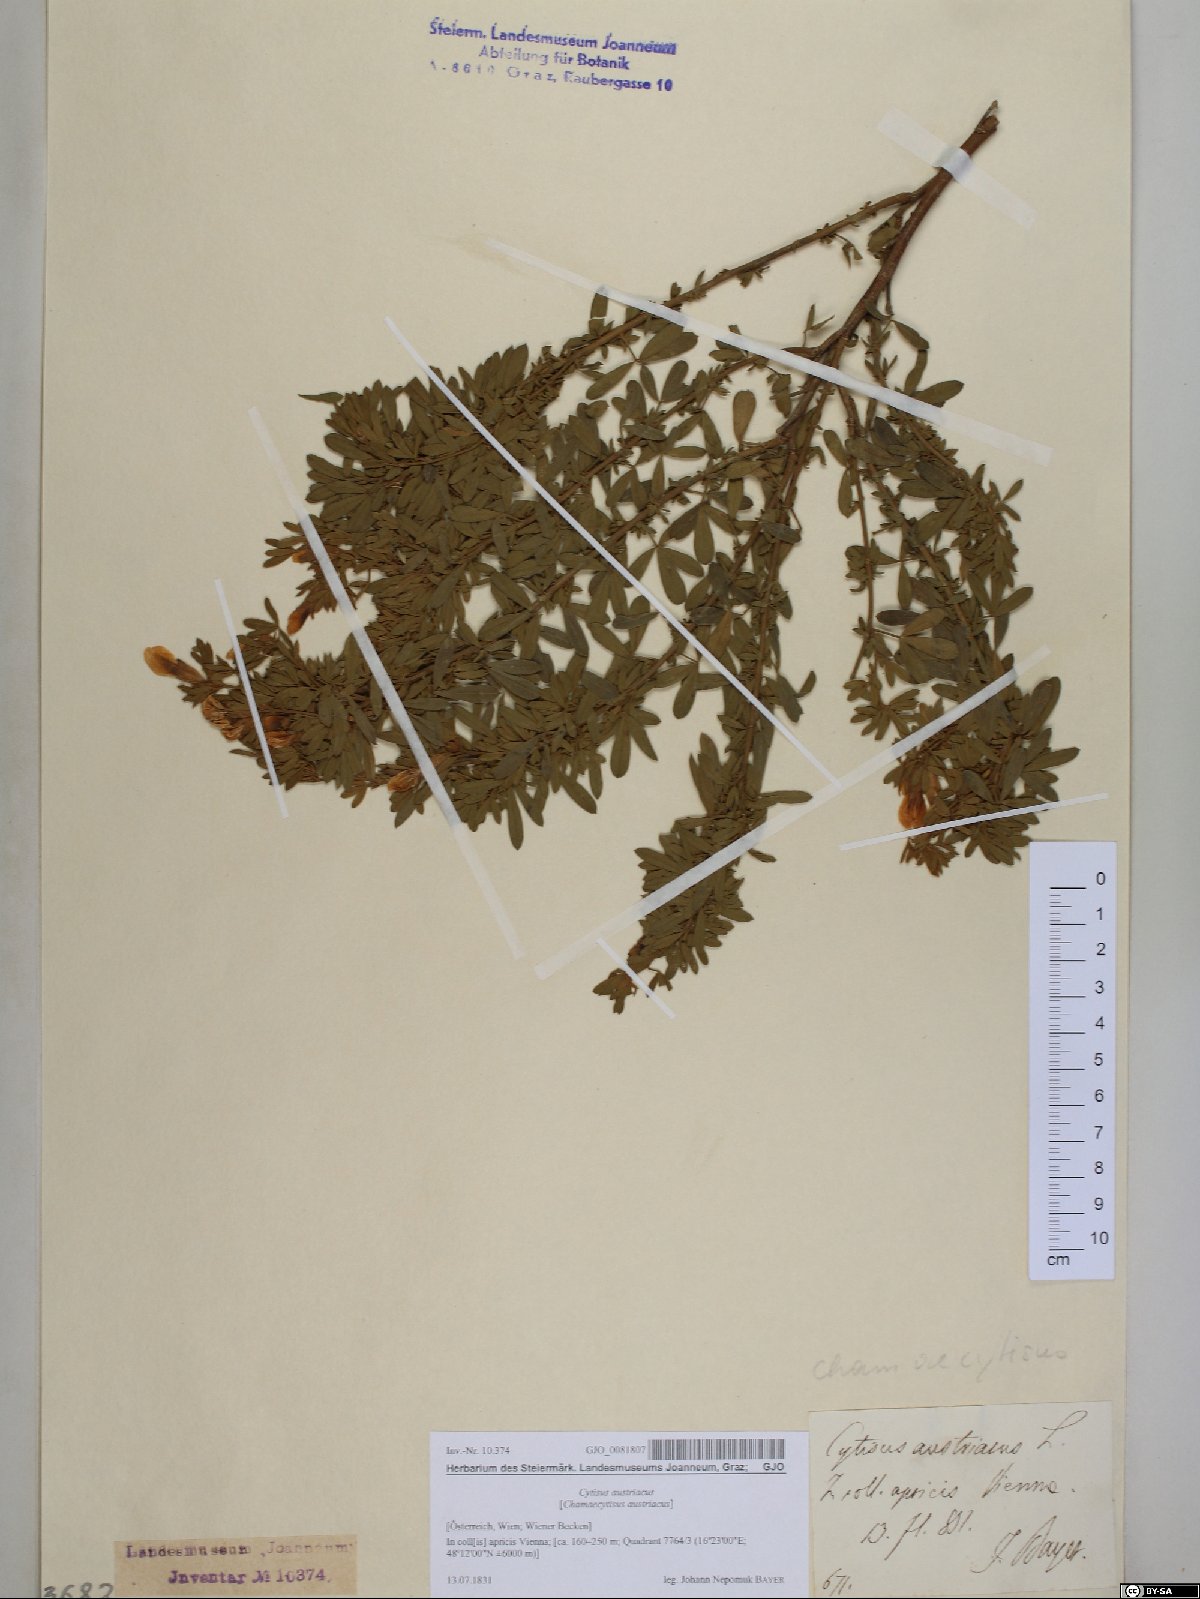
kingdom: Plantae
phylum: Tracheophyta
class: Magnoliopsida
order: Fabales
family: Fabaceae
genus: Chamaecytisus
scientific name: Chamaecytisus austriacus
